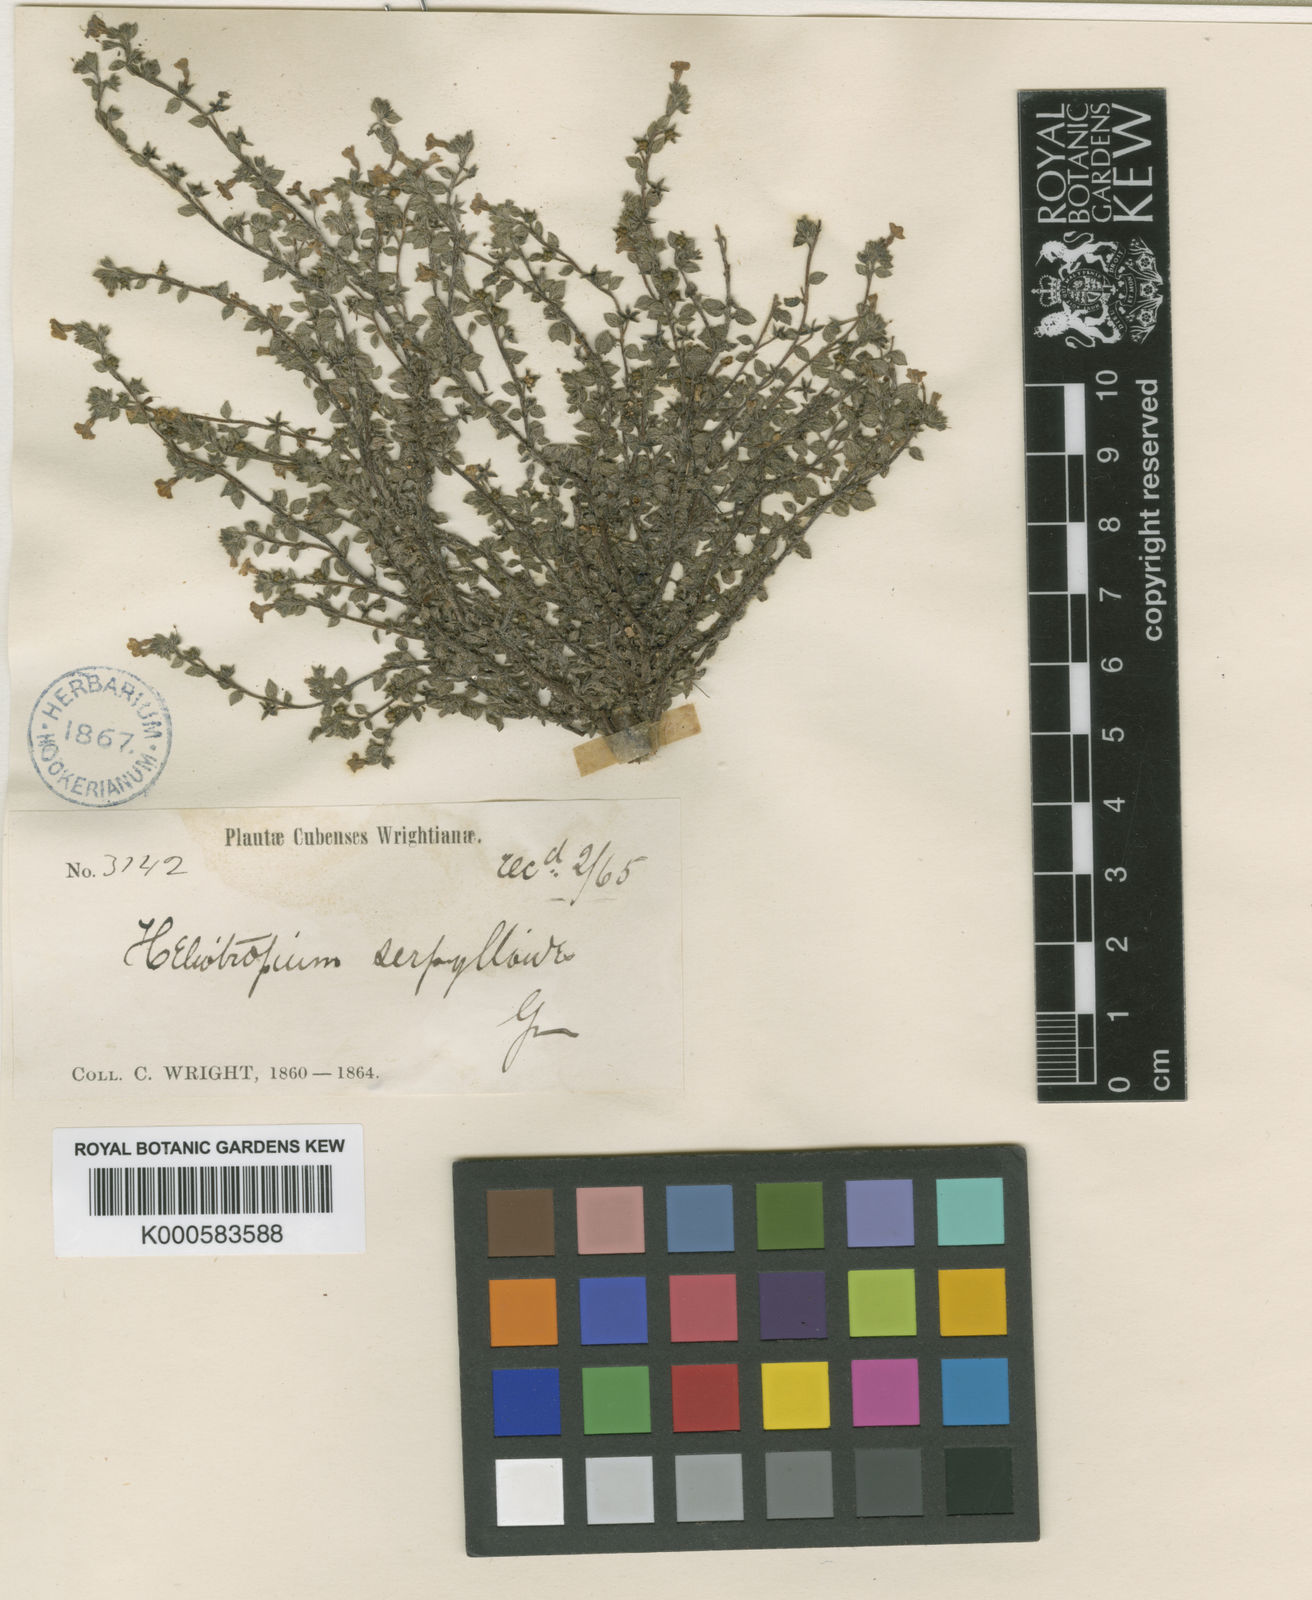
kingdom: Plantae
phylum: Tracheophyta
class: Magnoliopsida
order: Boraginales
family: Heliotropiaceae
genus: Euploca
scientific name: Euploca serpylloides
